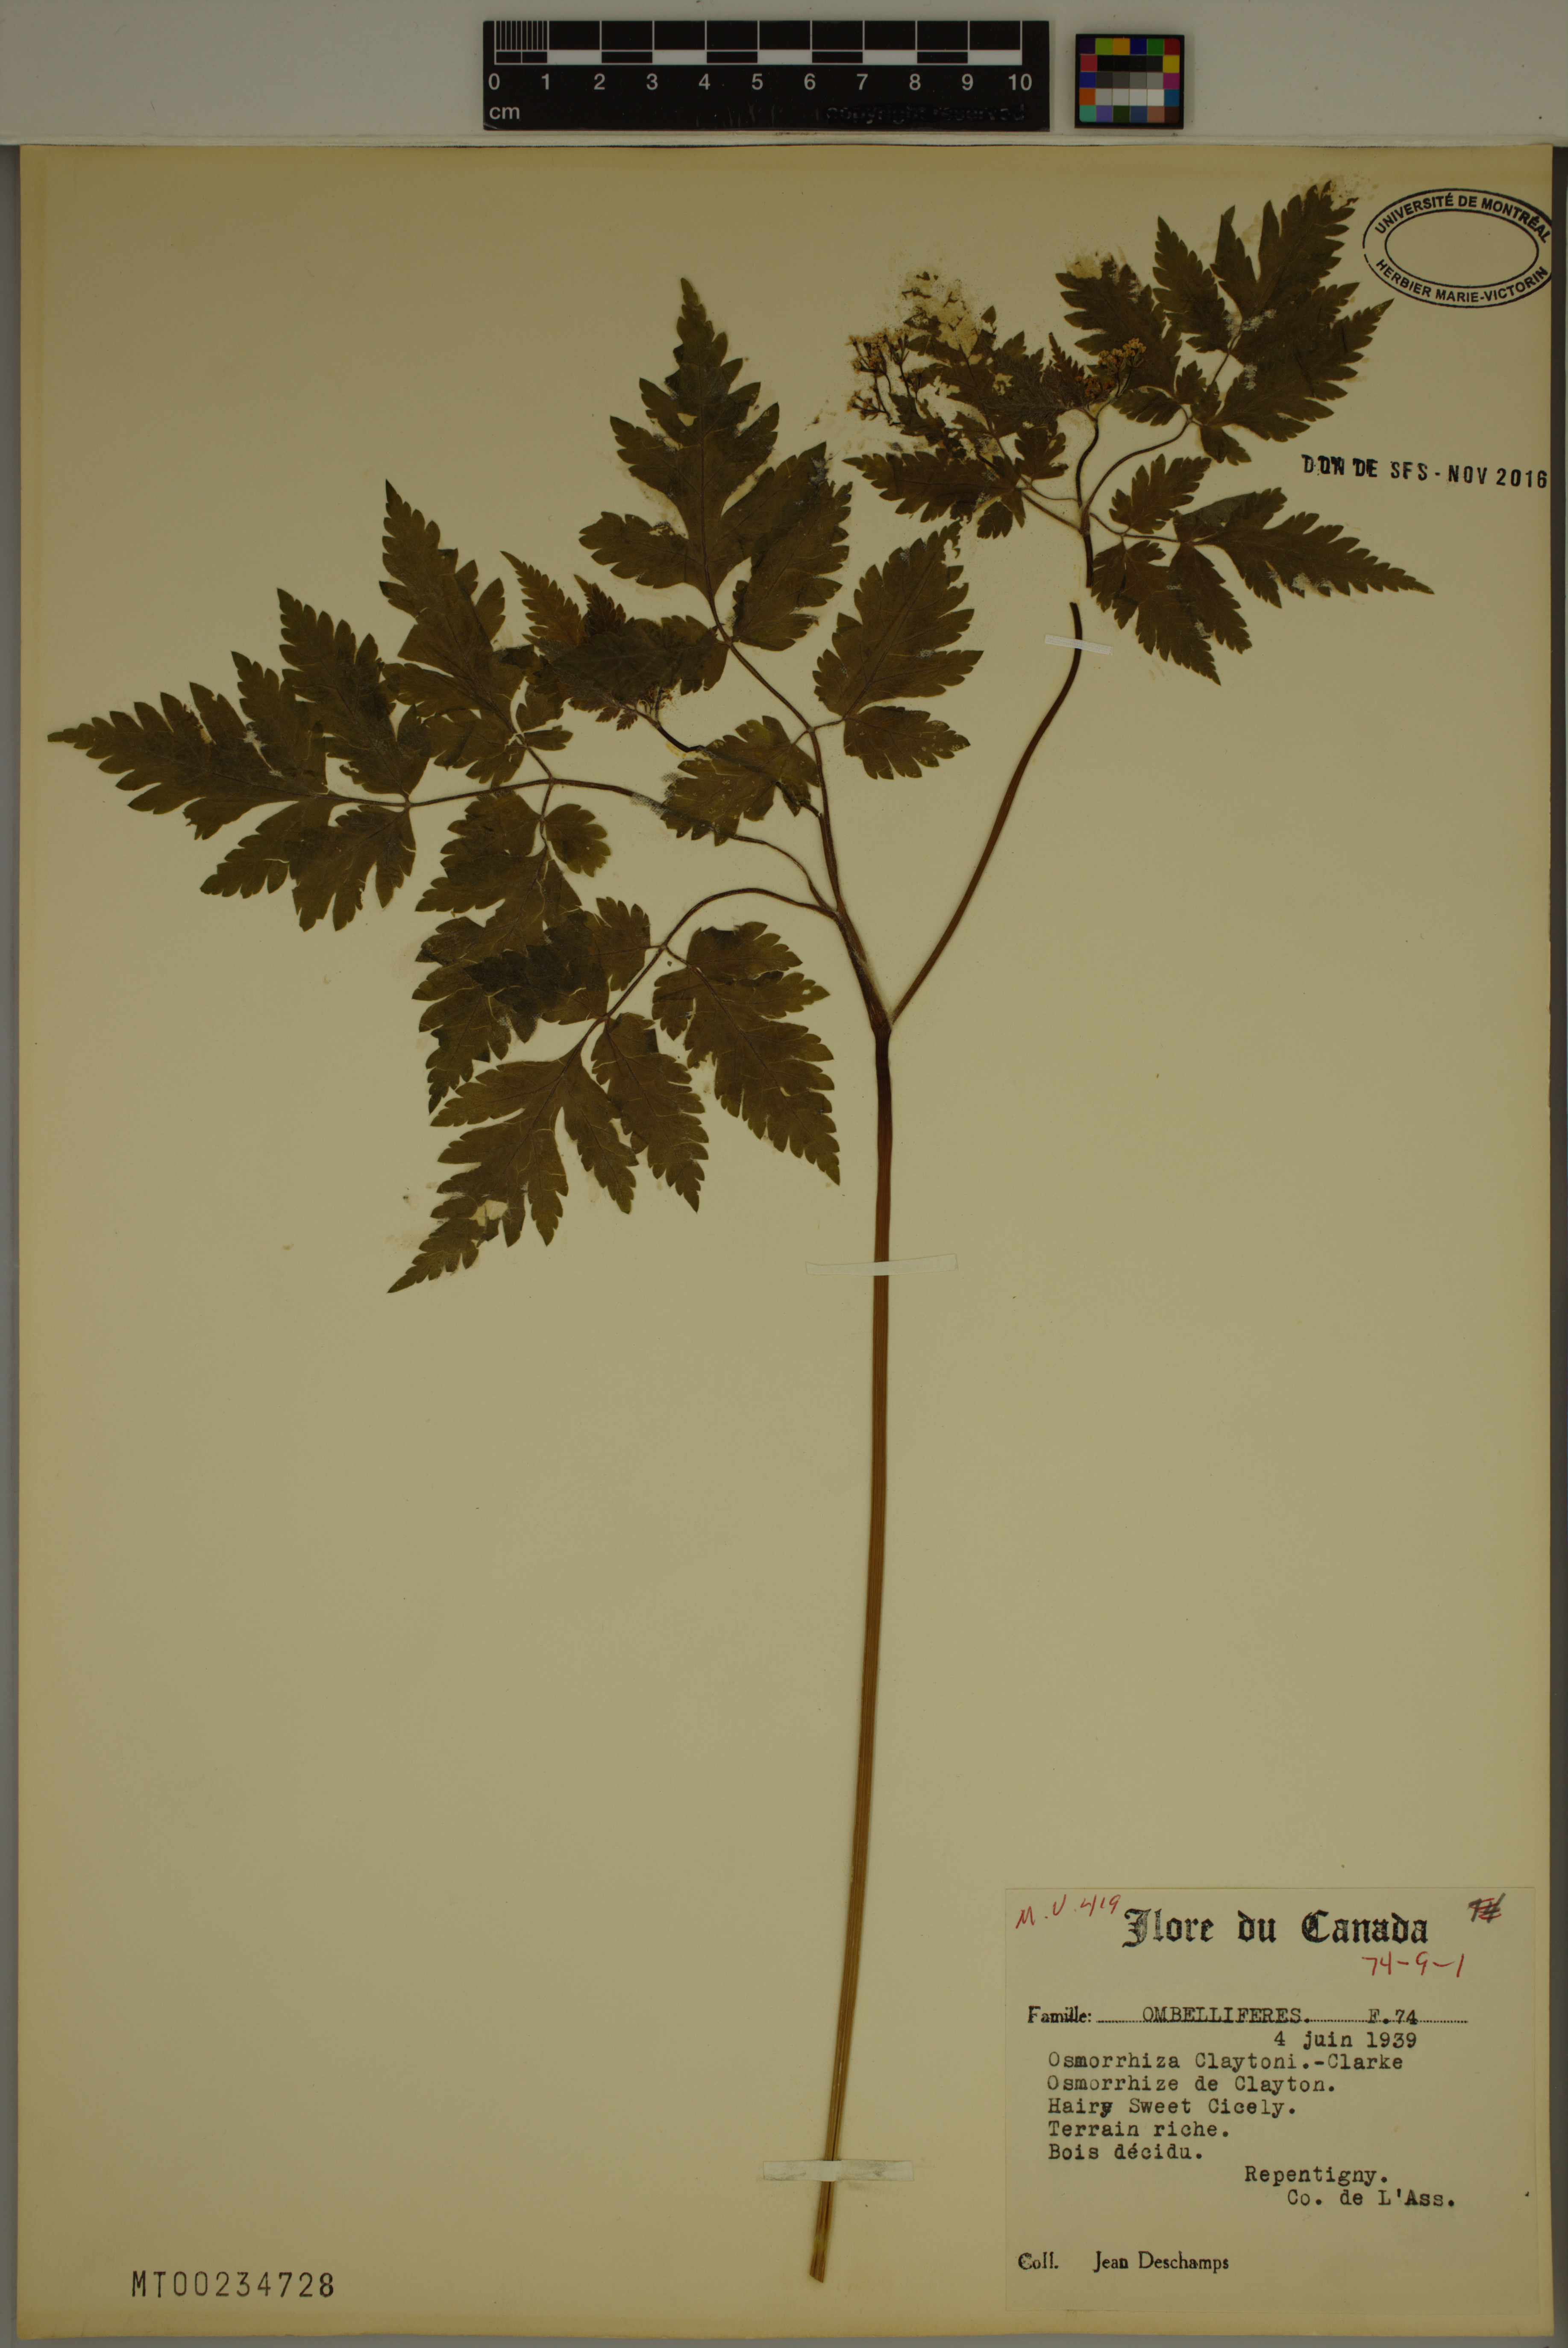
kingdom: Plantae
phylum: Tracheophyta
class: Magnoliopsida
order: Apiales
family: Apiaceae
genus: Osmorhiza
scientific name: Osmorhiza claytonii
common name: Hairy sweet cicely
